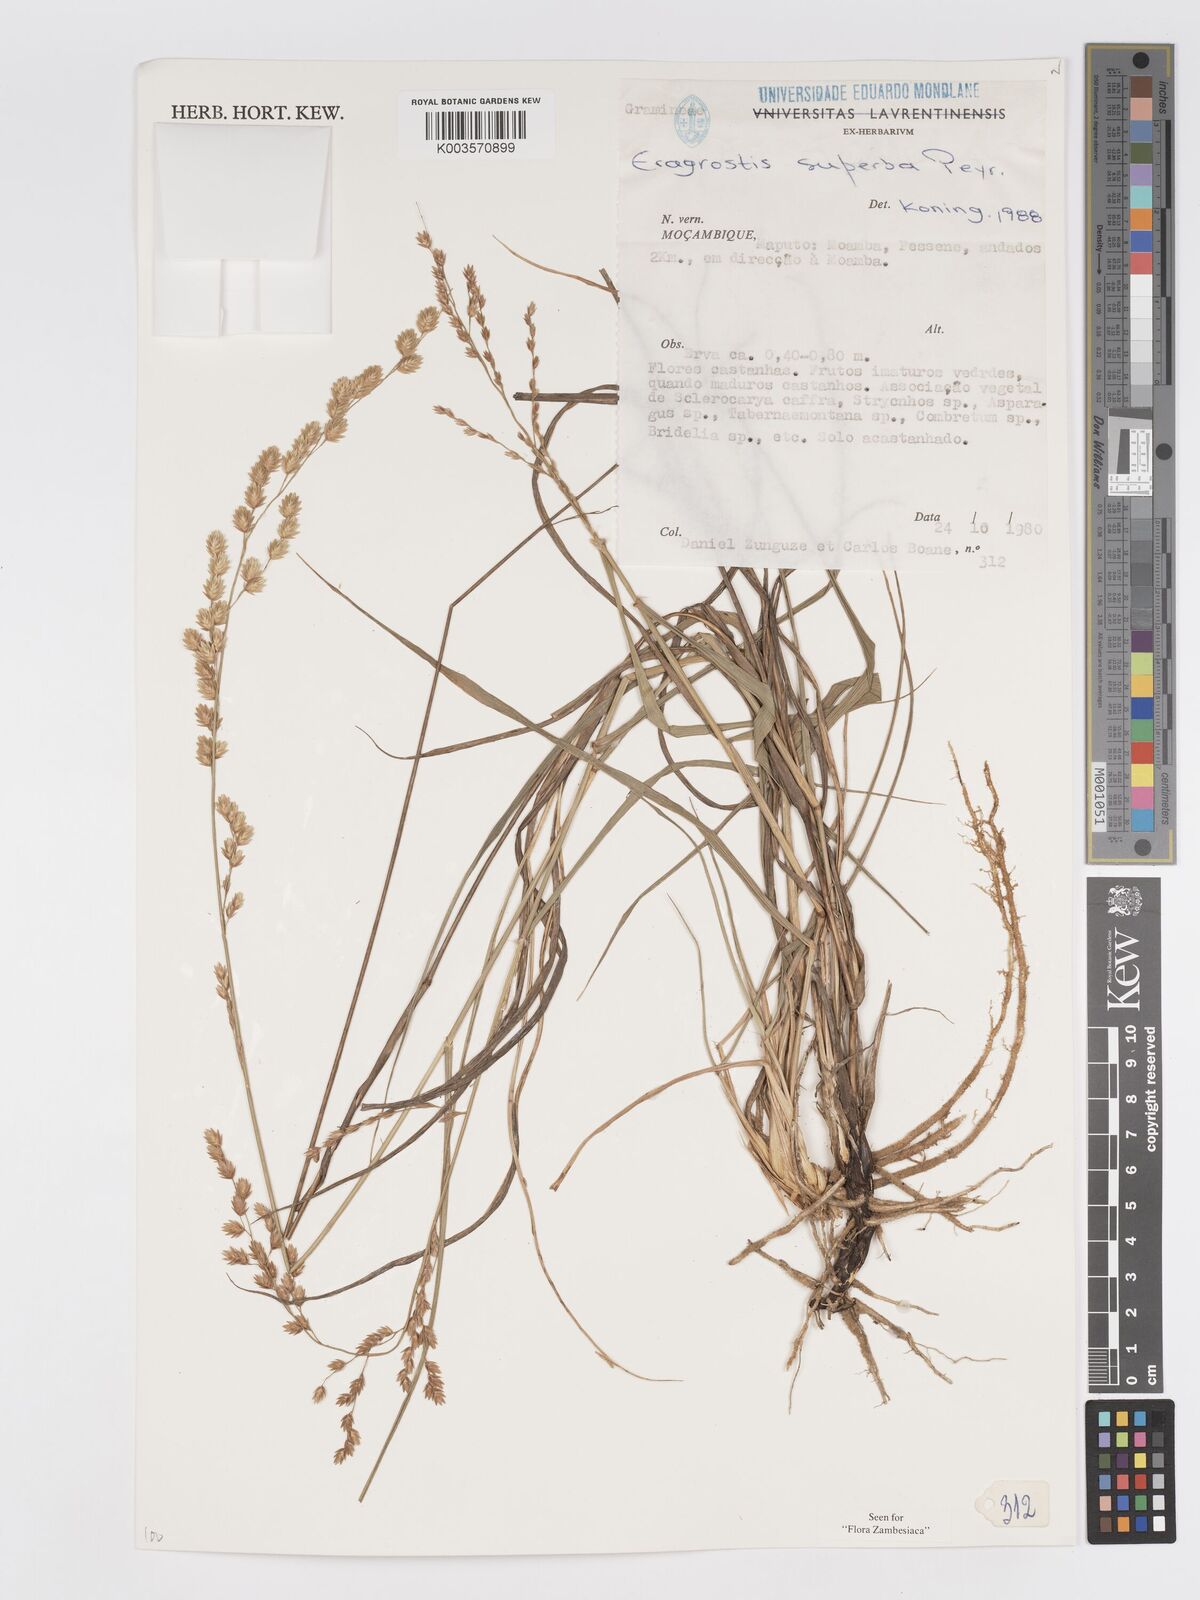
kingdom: Plantae
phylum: Tracheophyta
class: Liliopsida
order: Poales
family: Poaceae
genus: Eragrostis
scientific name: Eragrostis superba
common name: Wilman lovegrass
